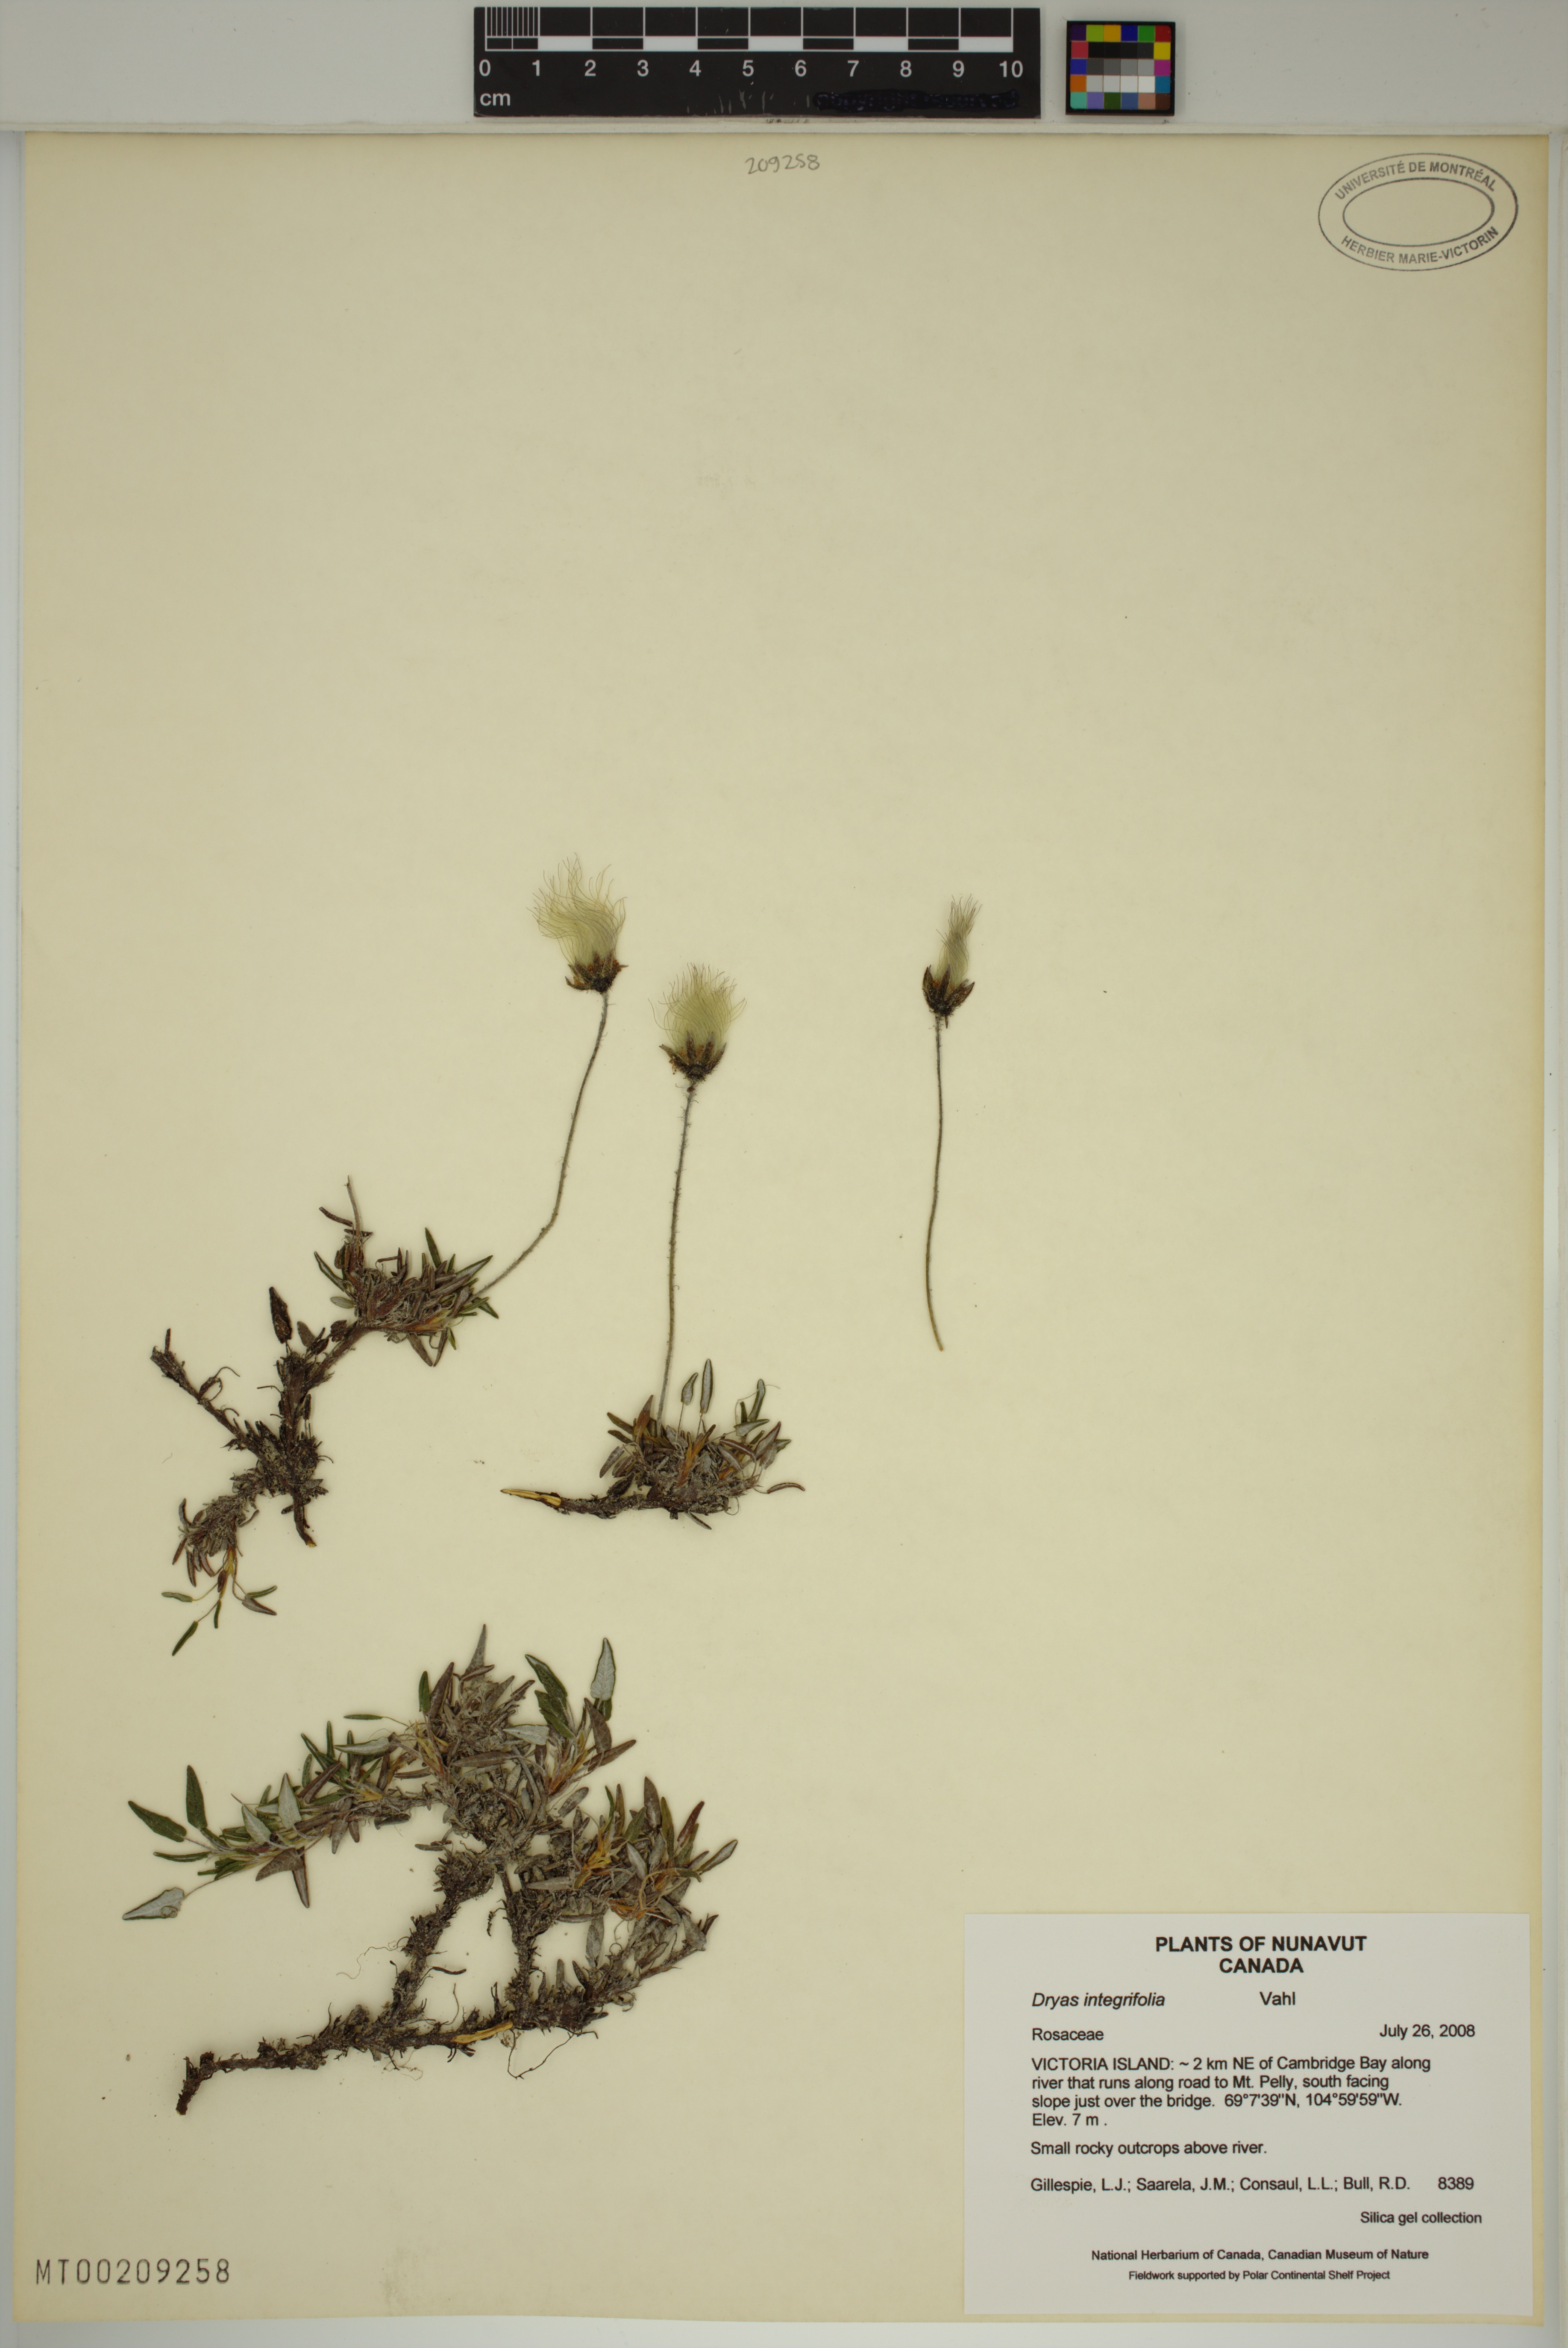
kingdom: Plantae
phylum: Tracheophyta
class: Magnoliopsida
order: Rosales
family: Rosaceae
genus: Dryas
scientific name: Dryas integrifolia
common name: Entire-leaved mountain avens
